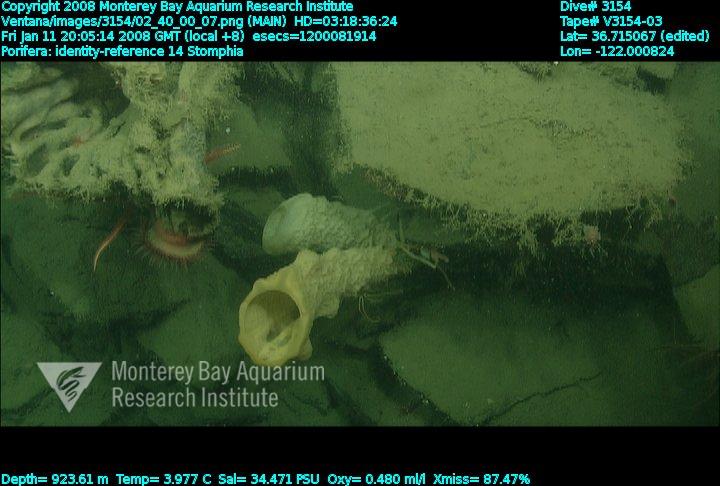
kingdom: Animalia
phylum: Porifera
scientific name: Porifera
